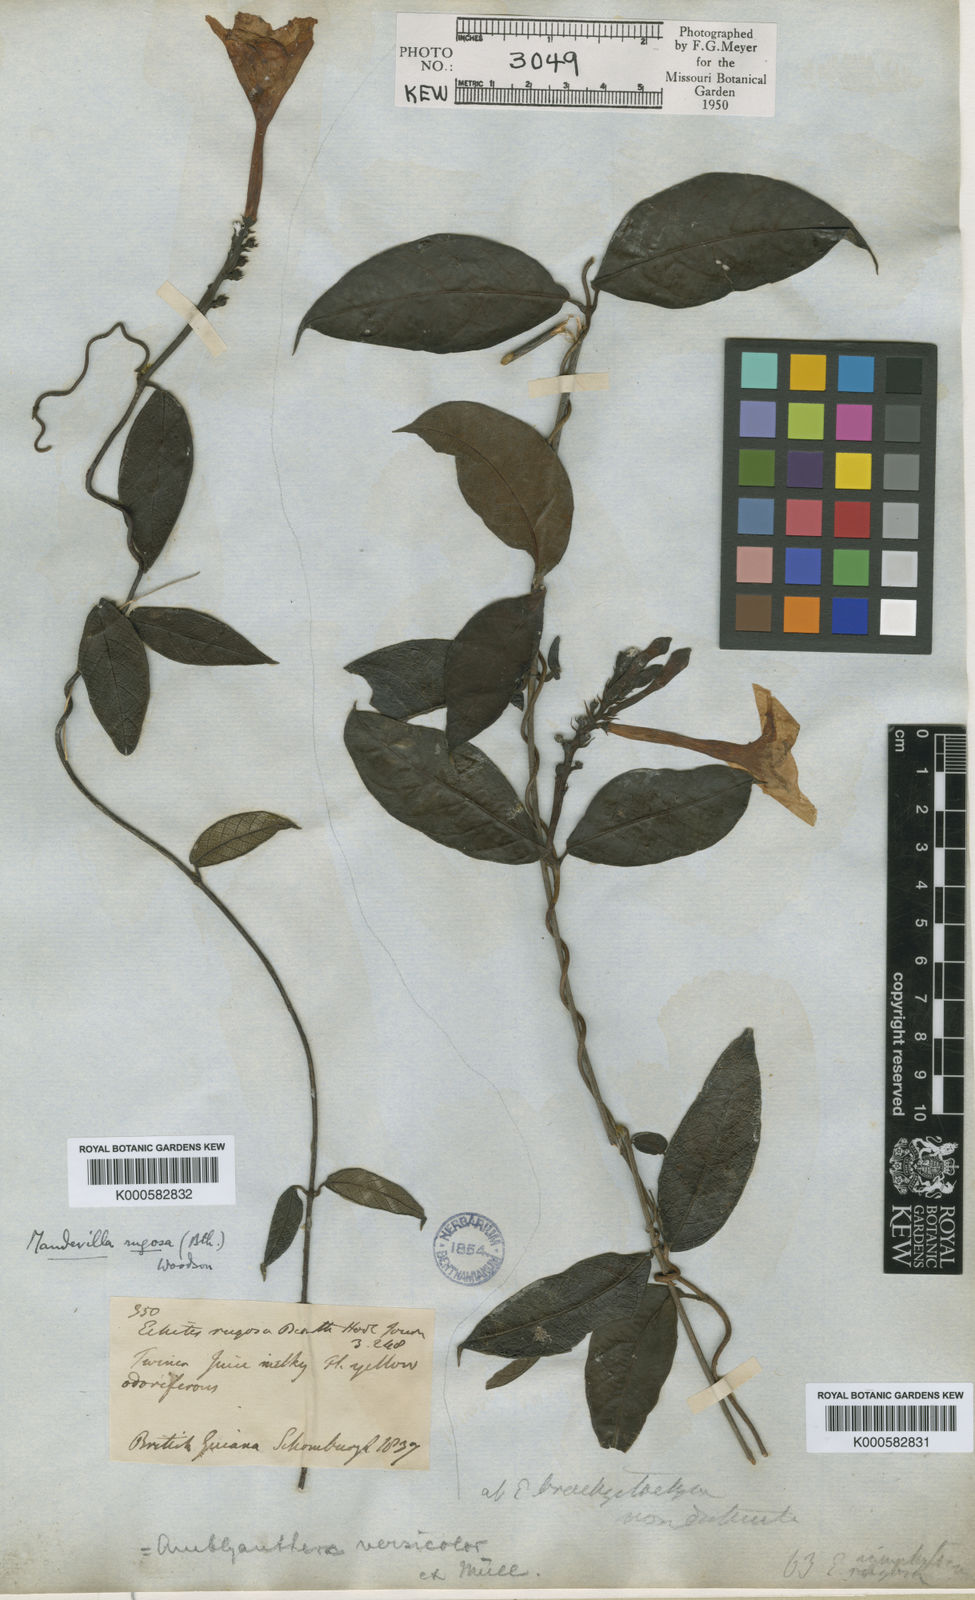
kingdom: Plantae
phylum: Tracheophyta
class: Magnoliopsida
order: Gentianales
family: Apocynaceae
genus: Mandevilla
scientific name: Mandevilla rugosa
